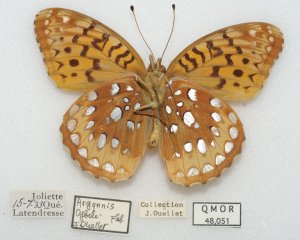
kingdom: Animalia
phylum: Arthropoda
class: Insecta
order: Lepidoptera
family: Nymphalidae
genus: Speyeria
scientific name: Speyeria cybele
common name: Great Spangled Fritillary
